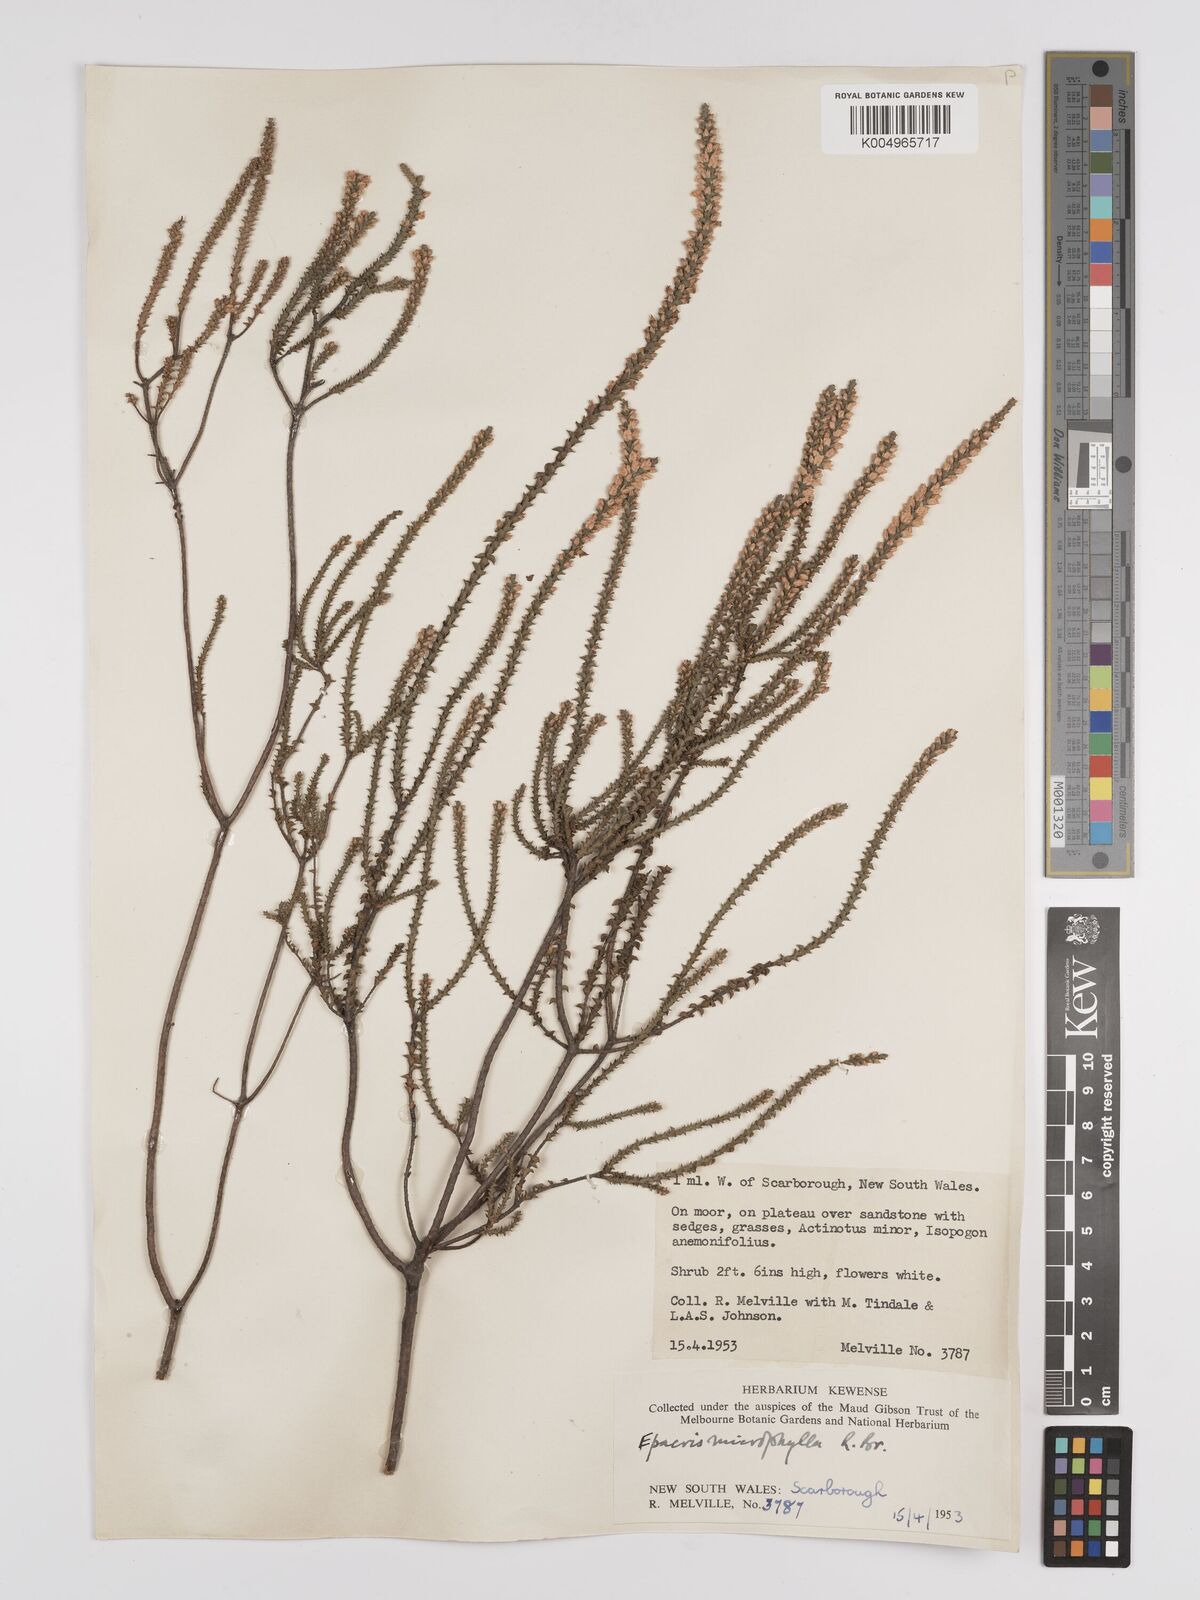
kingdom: Plantae
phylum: Tracheophyta
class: Magnoliopsida
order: Ericales
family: Ericaceae
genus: Epacris
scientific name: Epacris
